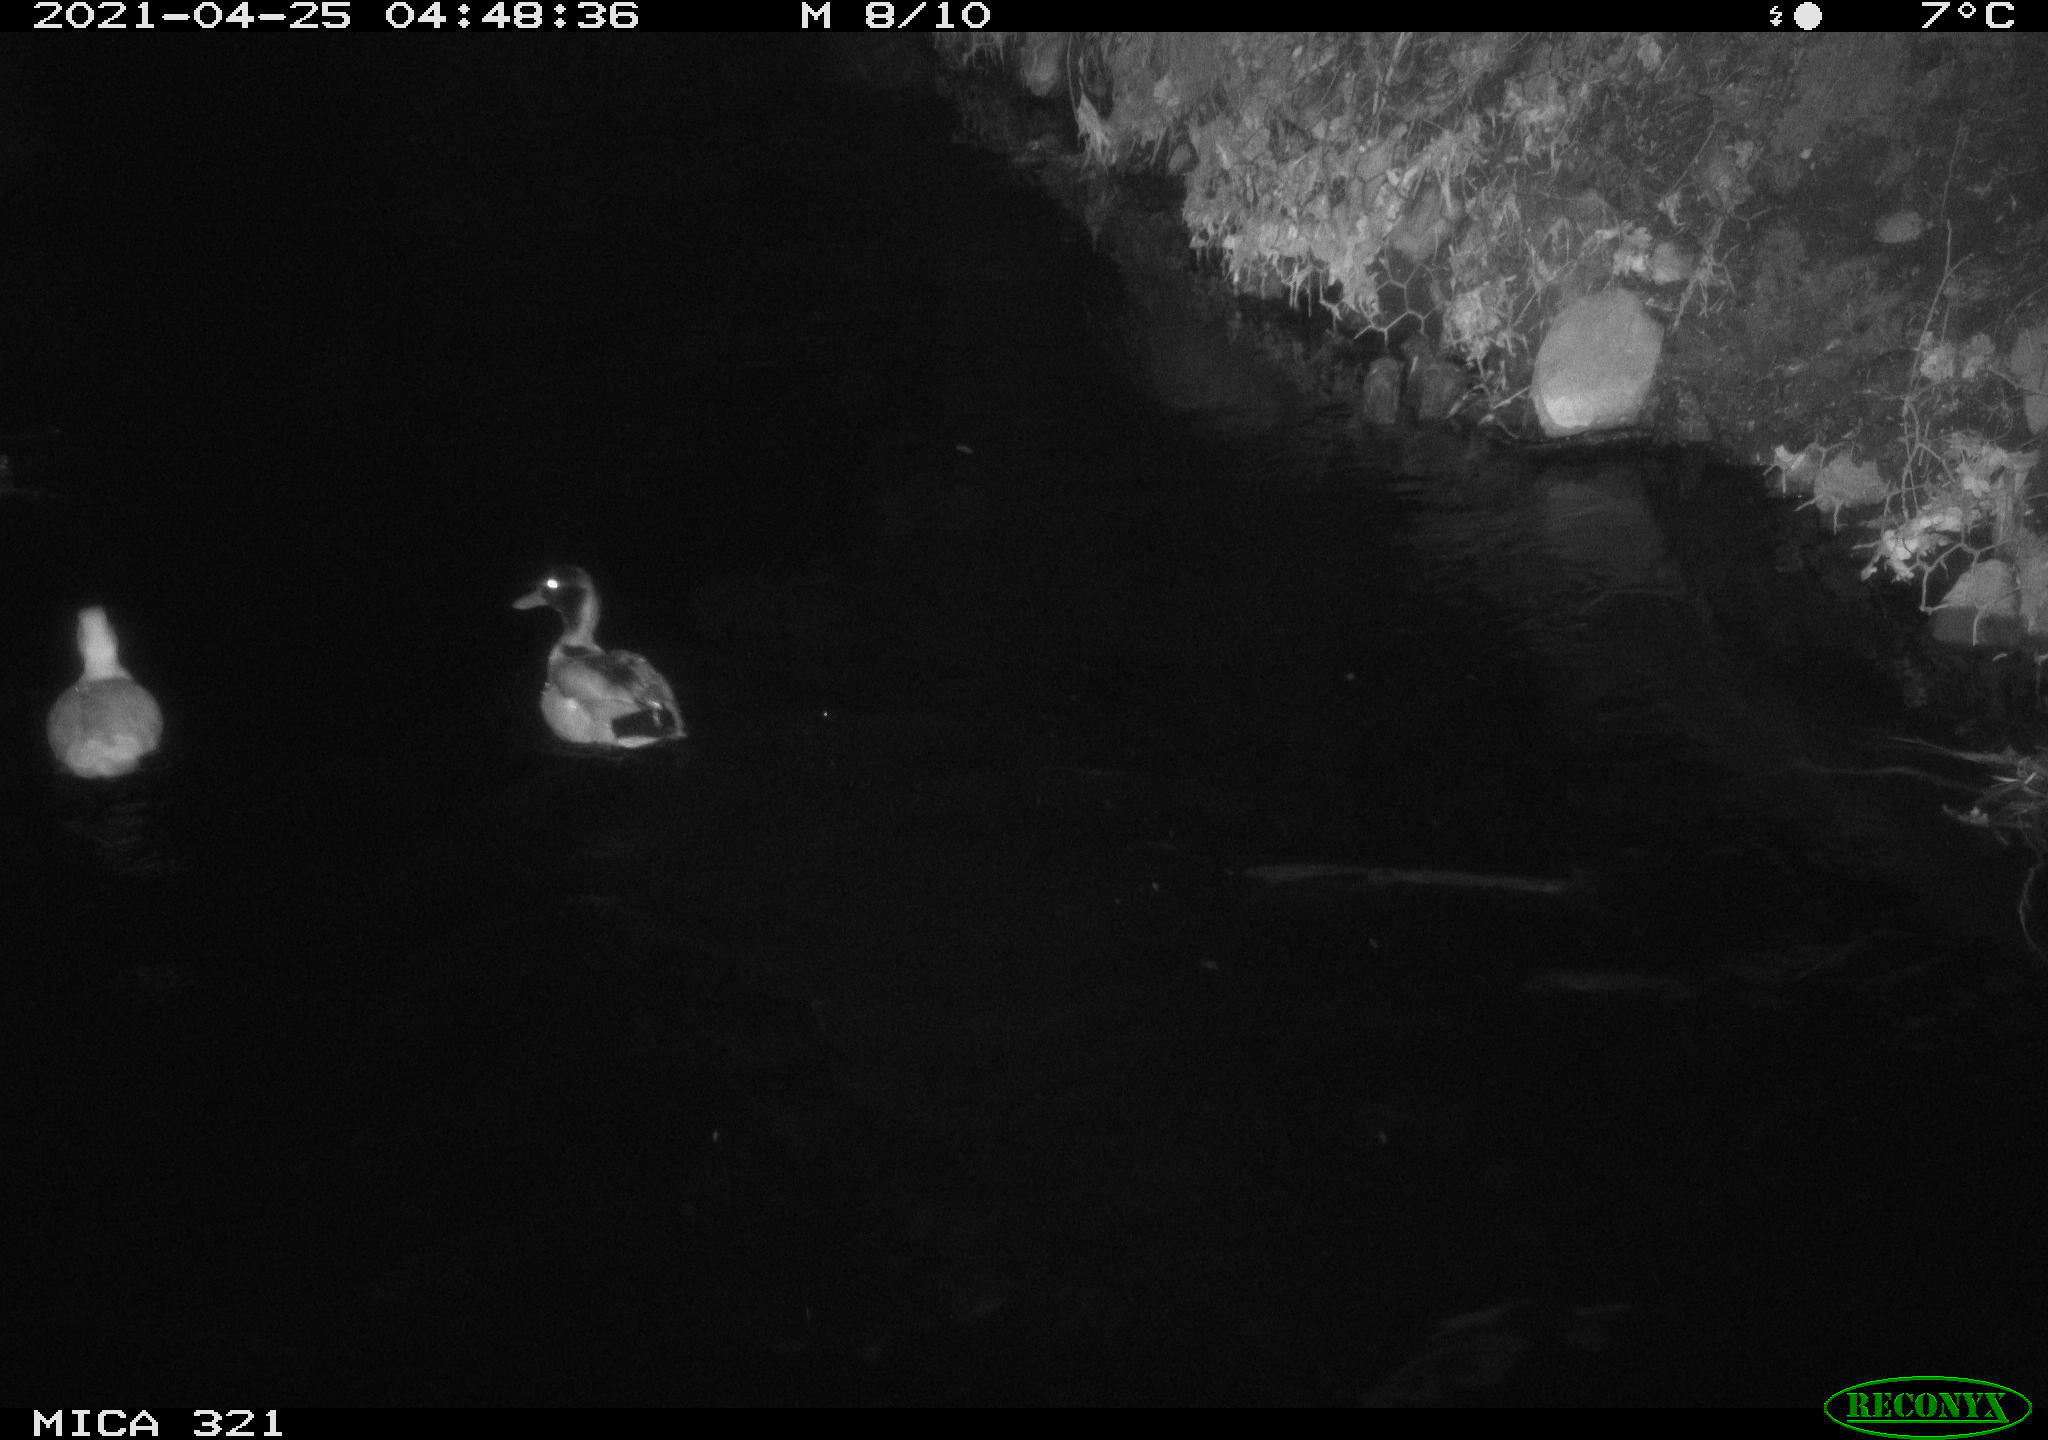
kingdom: Animalia
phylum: Chordata
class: Aves
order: Anseriformes
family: Anatidae
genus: Anas
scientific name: Anas
